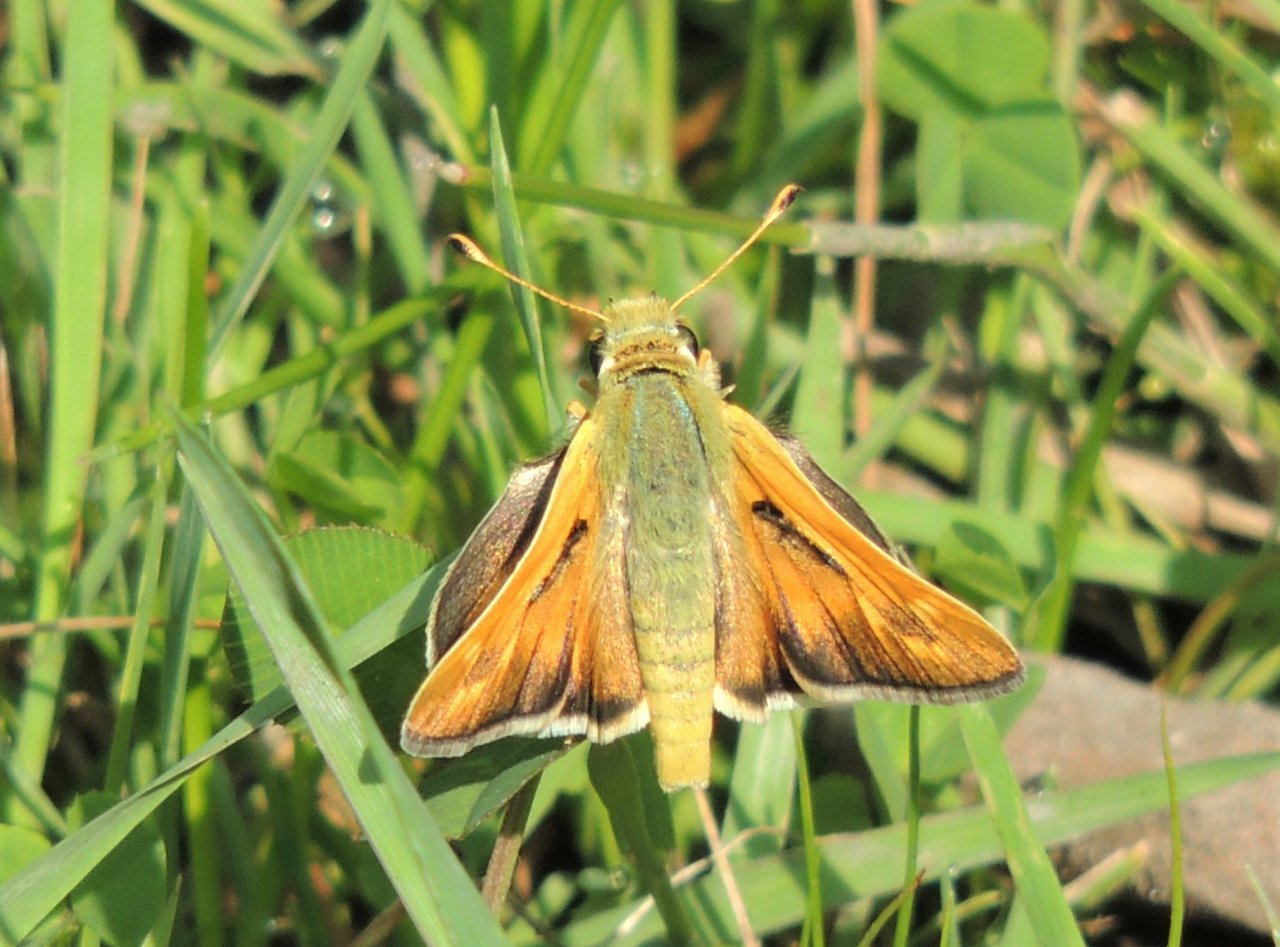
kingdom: Animalia
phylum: Arthropoda
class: Insecta
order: Lepidoptera
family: Hesperiidae
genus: Ochlodes
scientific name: Ochlodes sylvanoides
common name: Woodland Skipper
